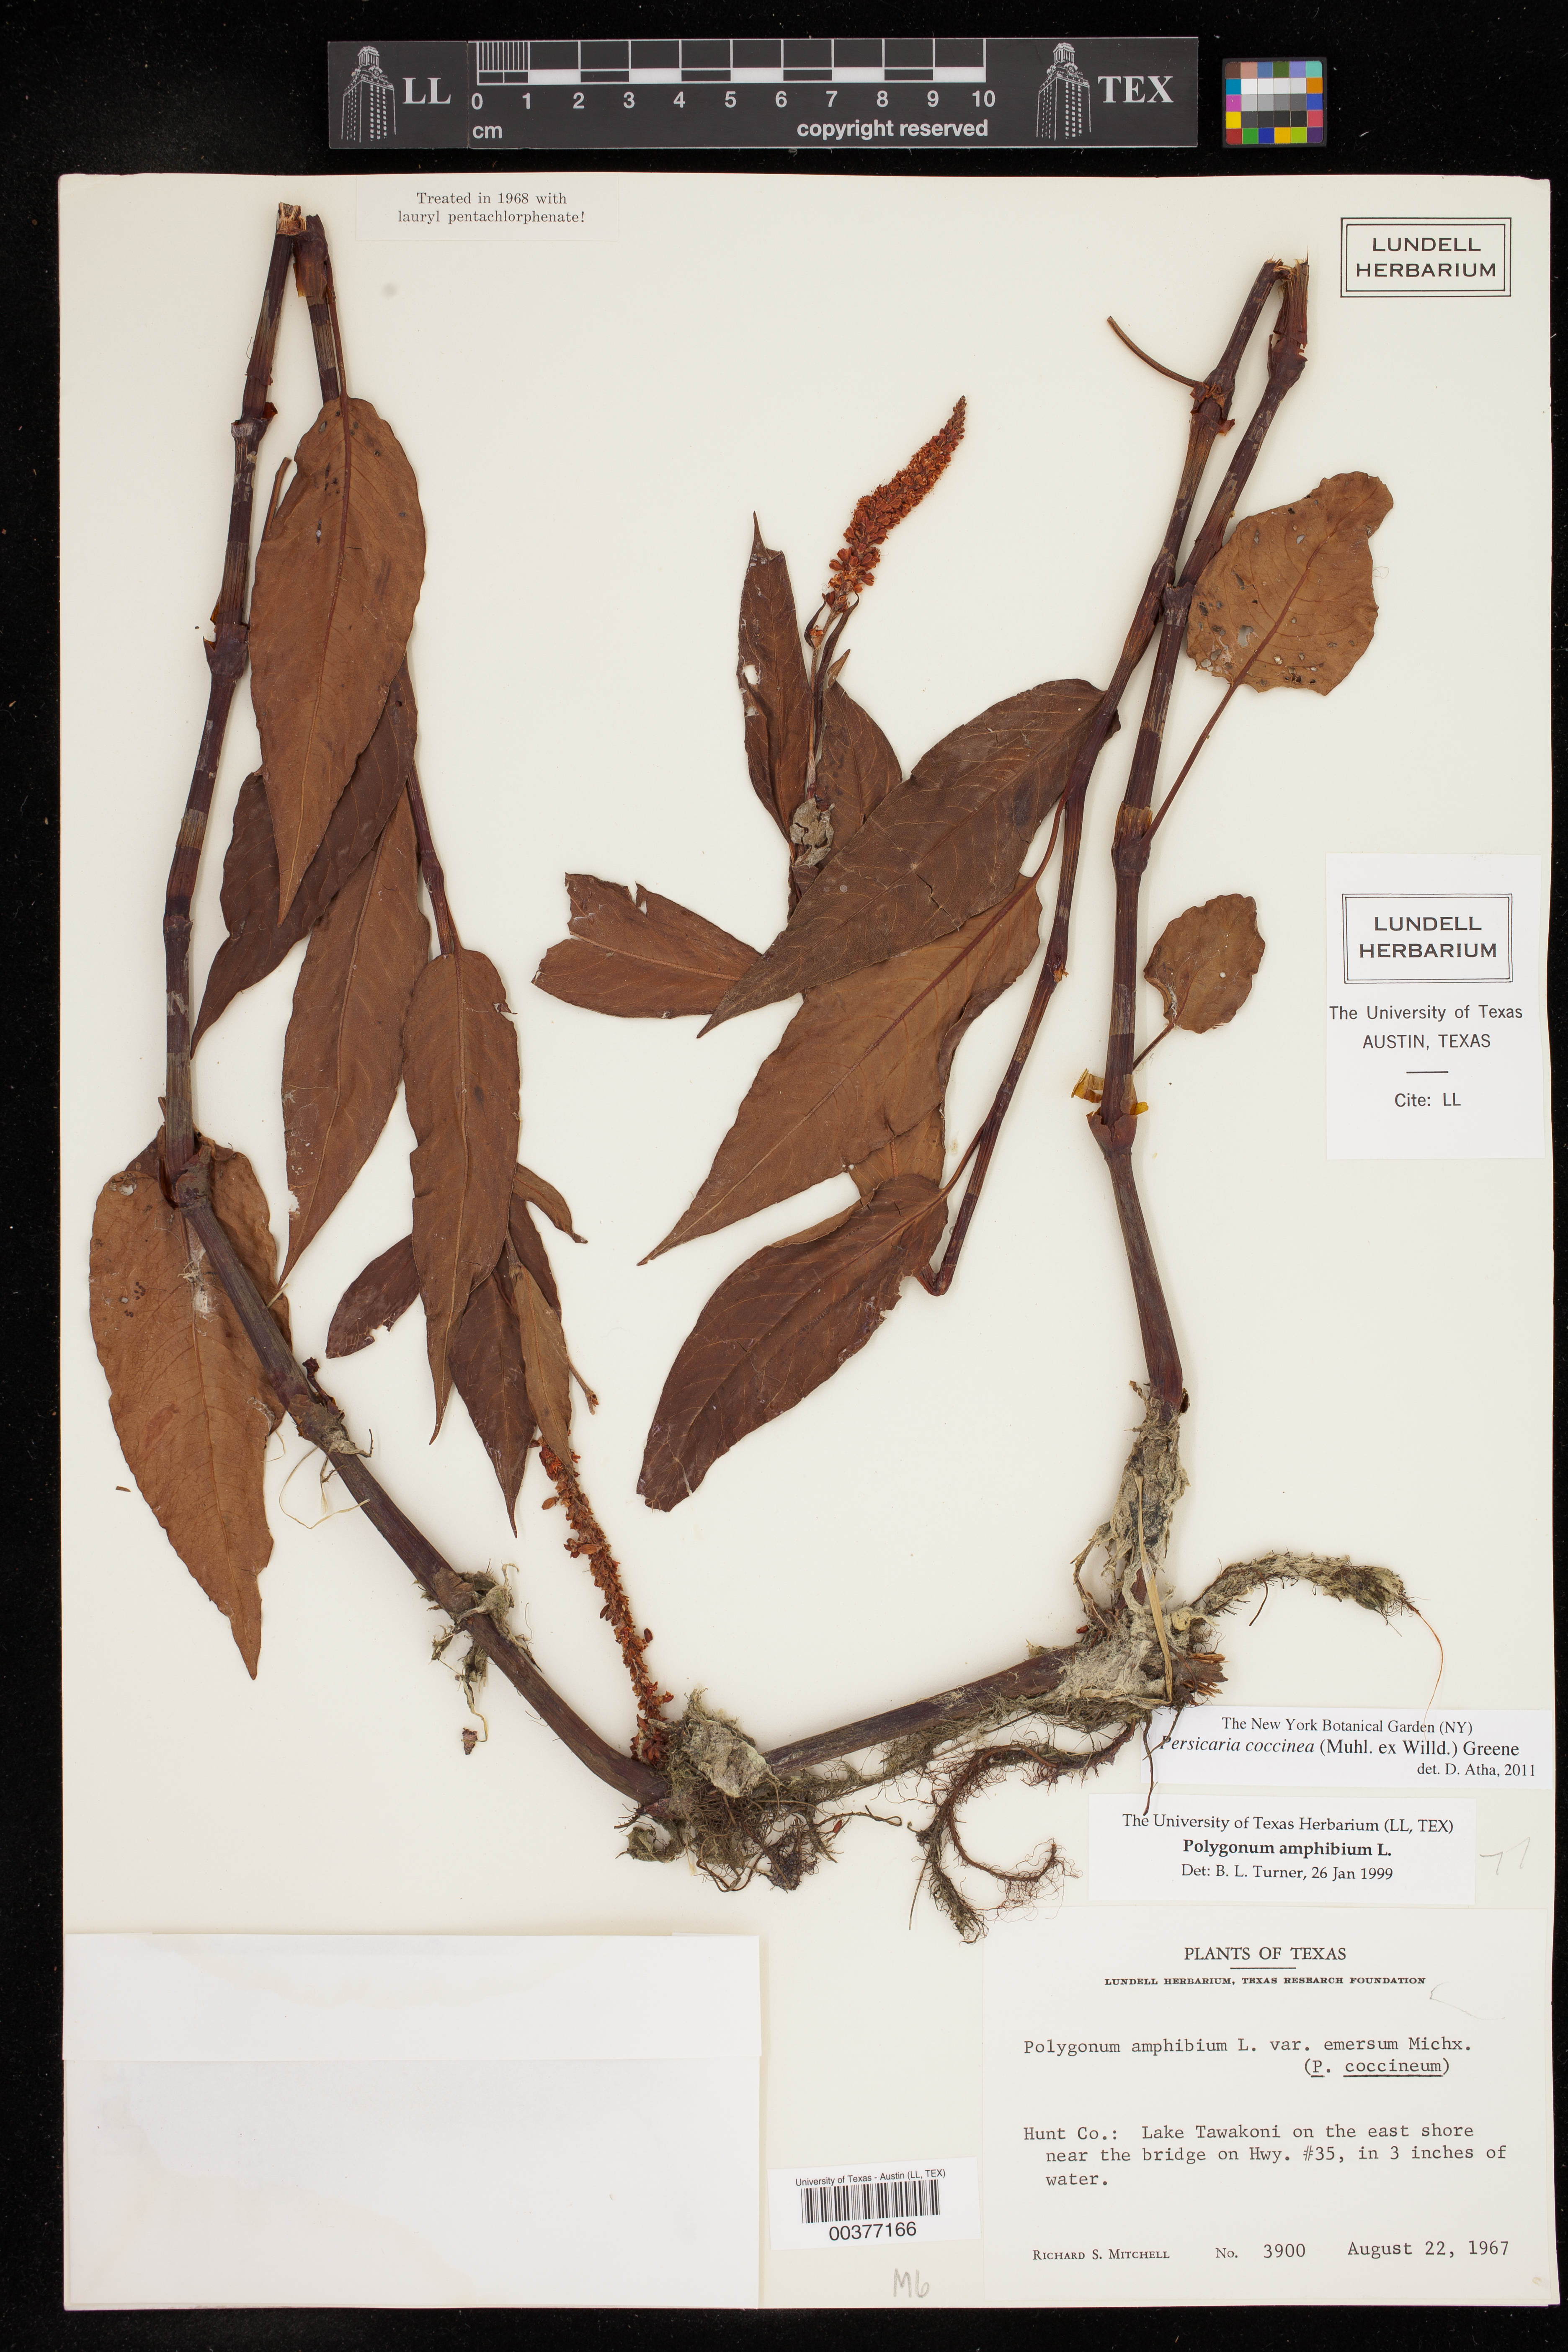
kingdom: Plantae
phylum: Tracheophyta
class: Magnoliopsida
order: Caryophyllales
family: Polygonaceae
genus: Persicaria
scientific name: Persicaria amphibia
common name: Amphibious bistort
